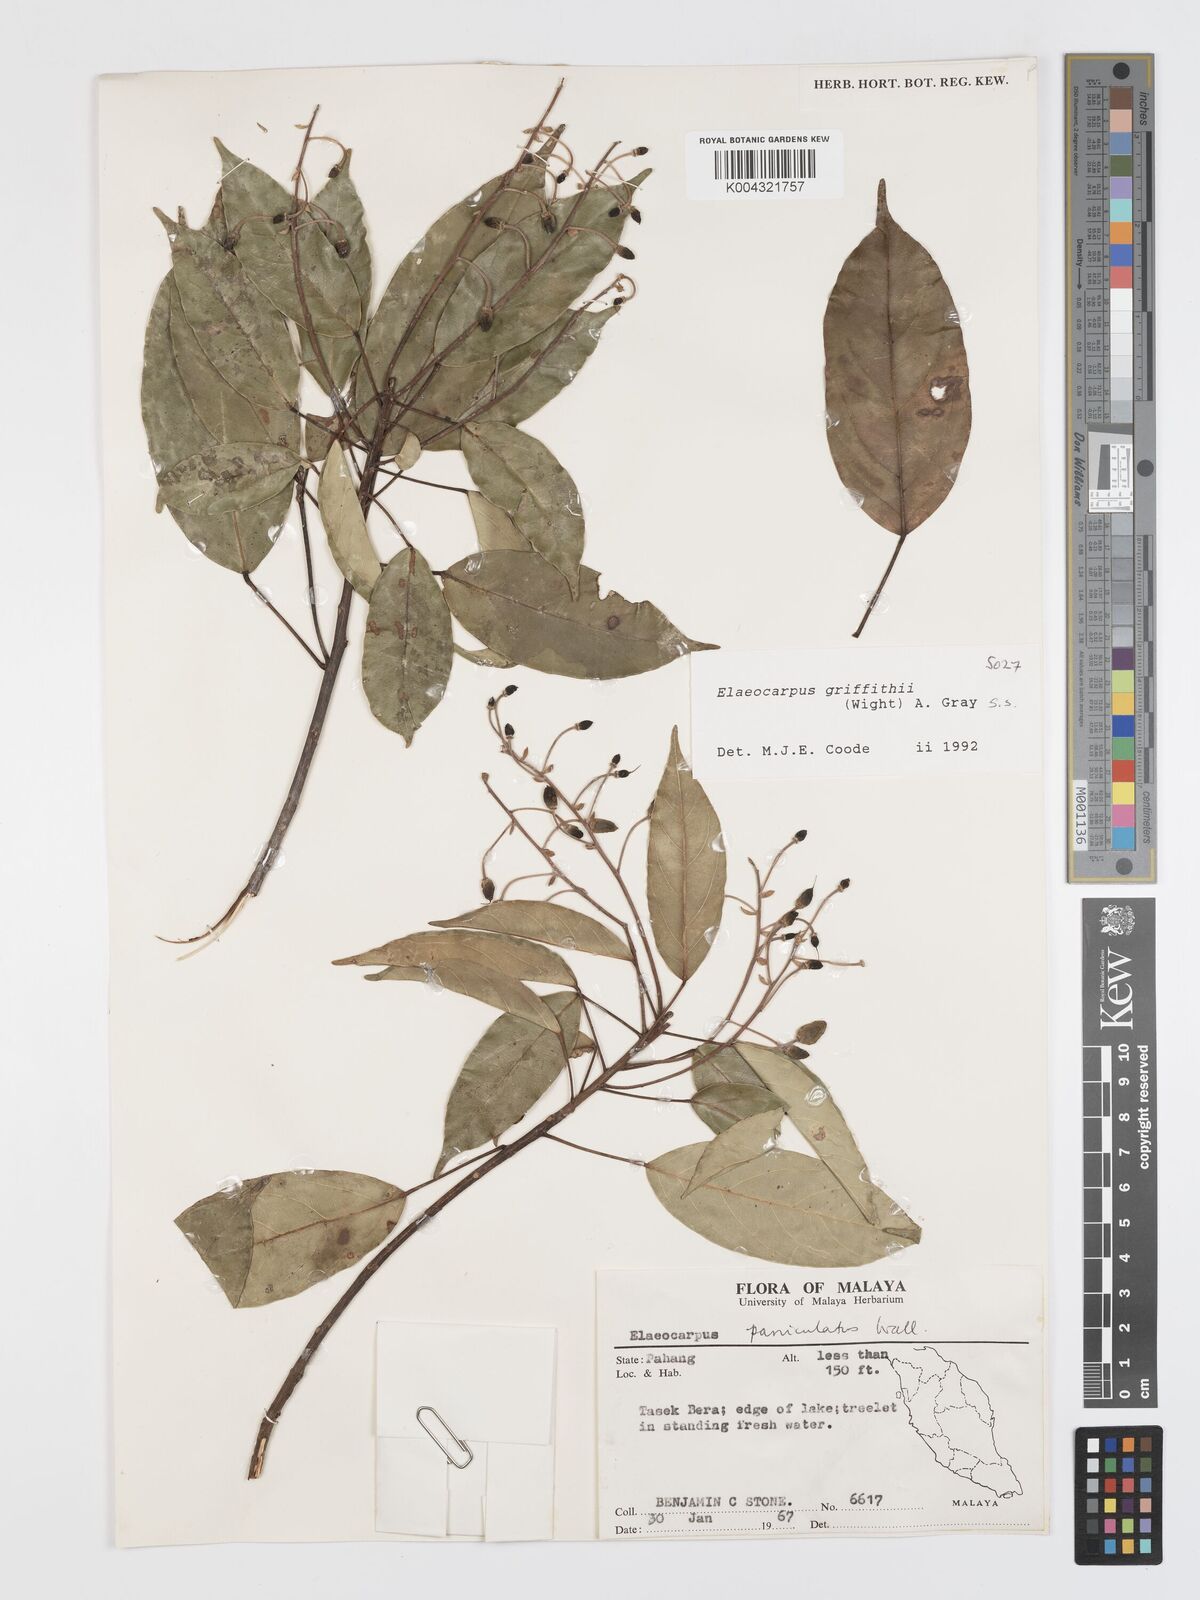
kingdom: Plantae
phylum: Tracheophyta
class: Magnoliopsida
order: Oxalidales
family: Elaeocarpaceae
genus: Elaeocarpus
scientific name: Elaeocarpus griffithii
